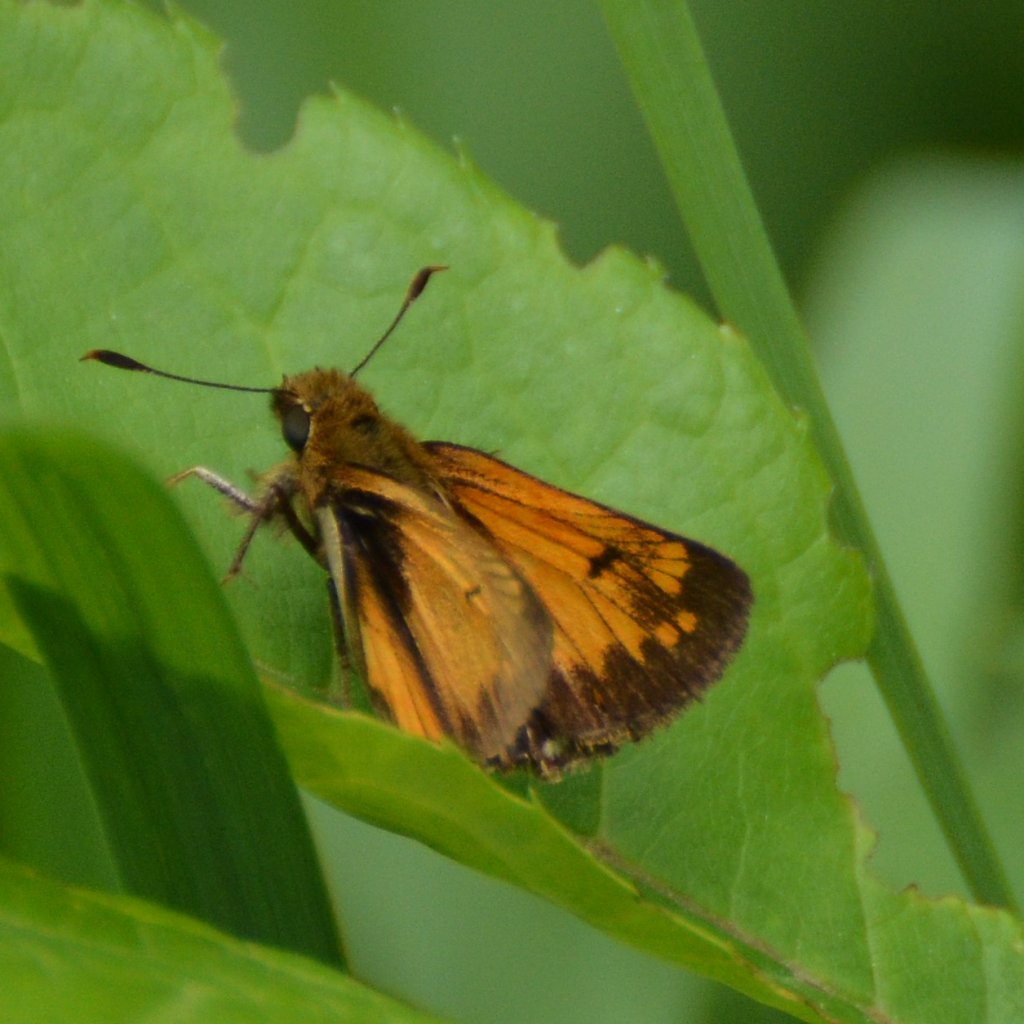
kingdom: Animalia
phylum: Arthropoda
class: Insecta
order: Lepidoptera
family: Hesperiidae
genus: Lon
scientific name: Lon hobomok
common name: Hobomok Skipper
